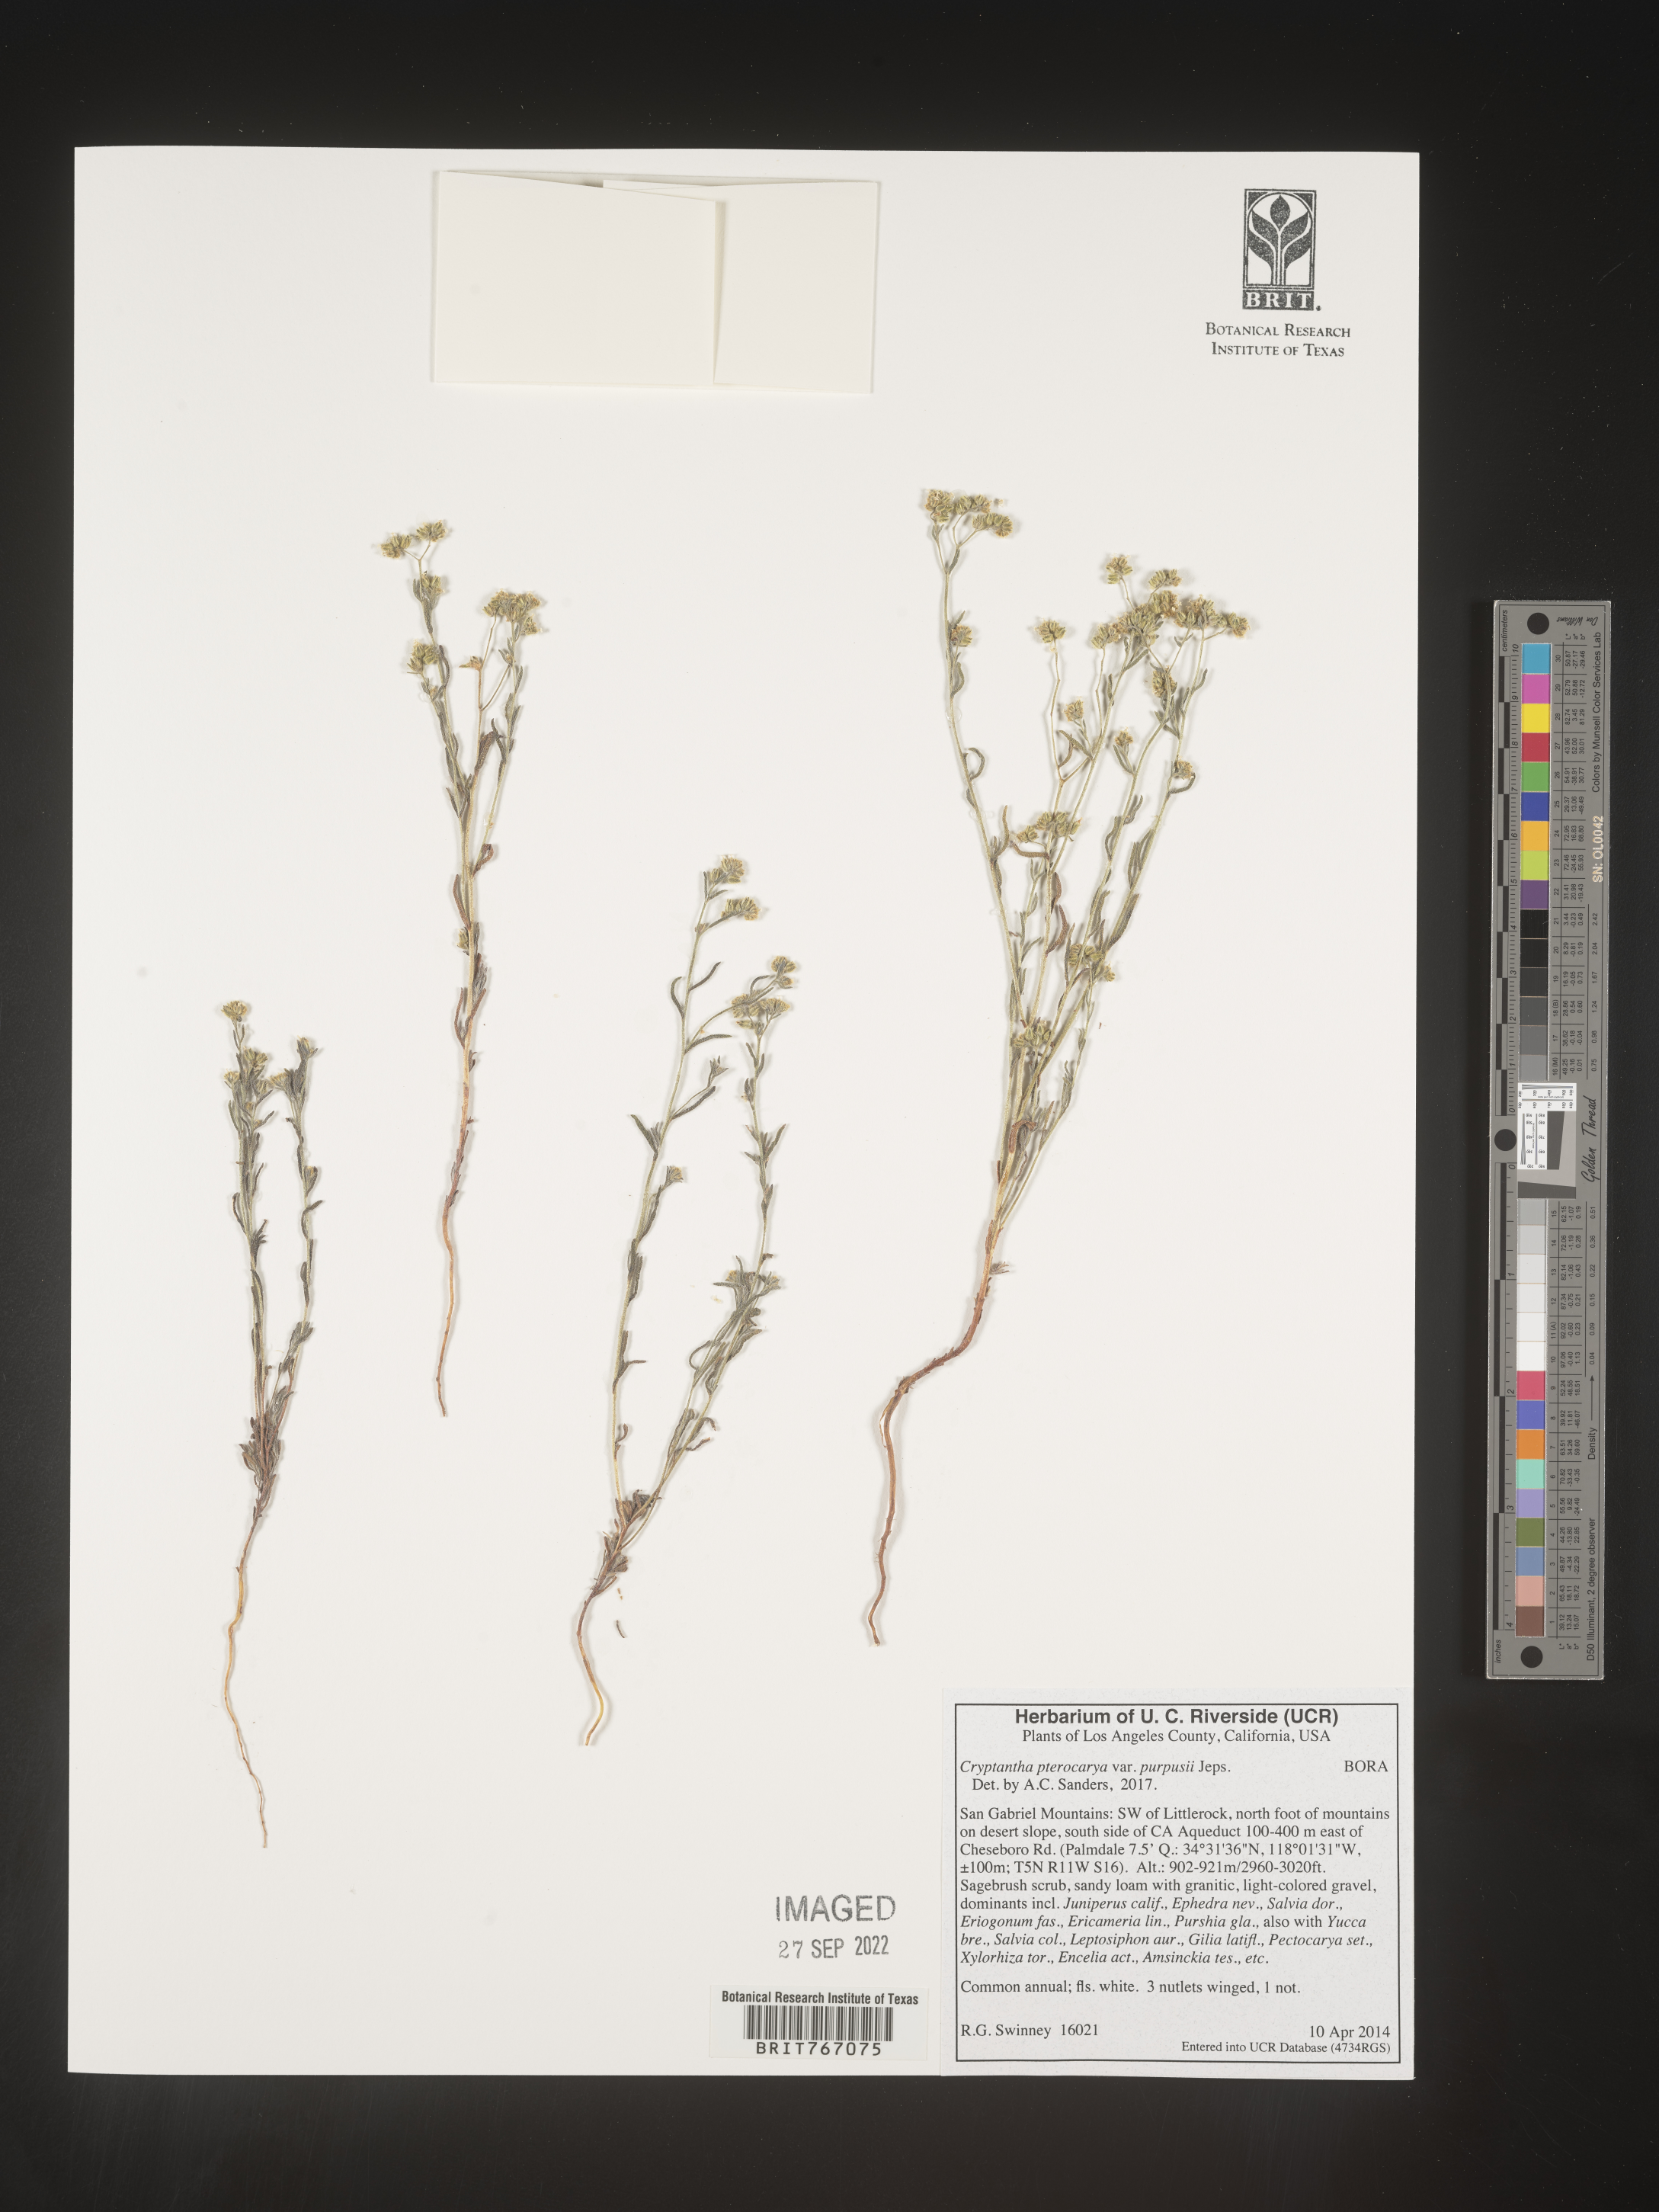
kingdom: Plantae
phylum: Tracheophyta
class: Magnoliopsida
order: Boraginales
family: Boraginaceae
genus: Cryptantha
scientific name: Cryptantha pterocarya
